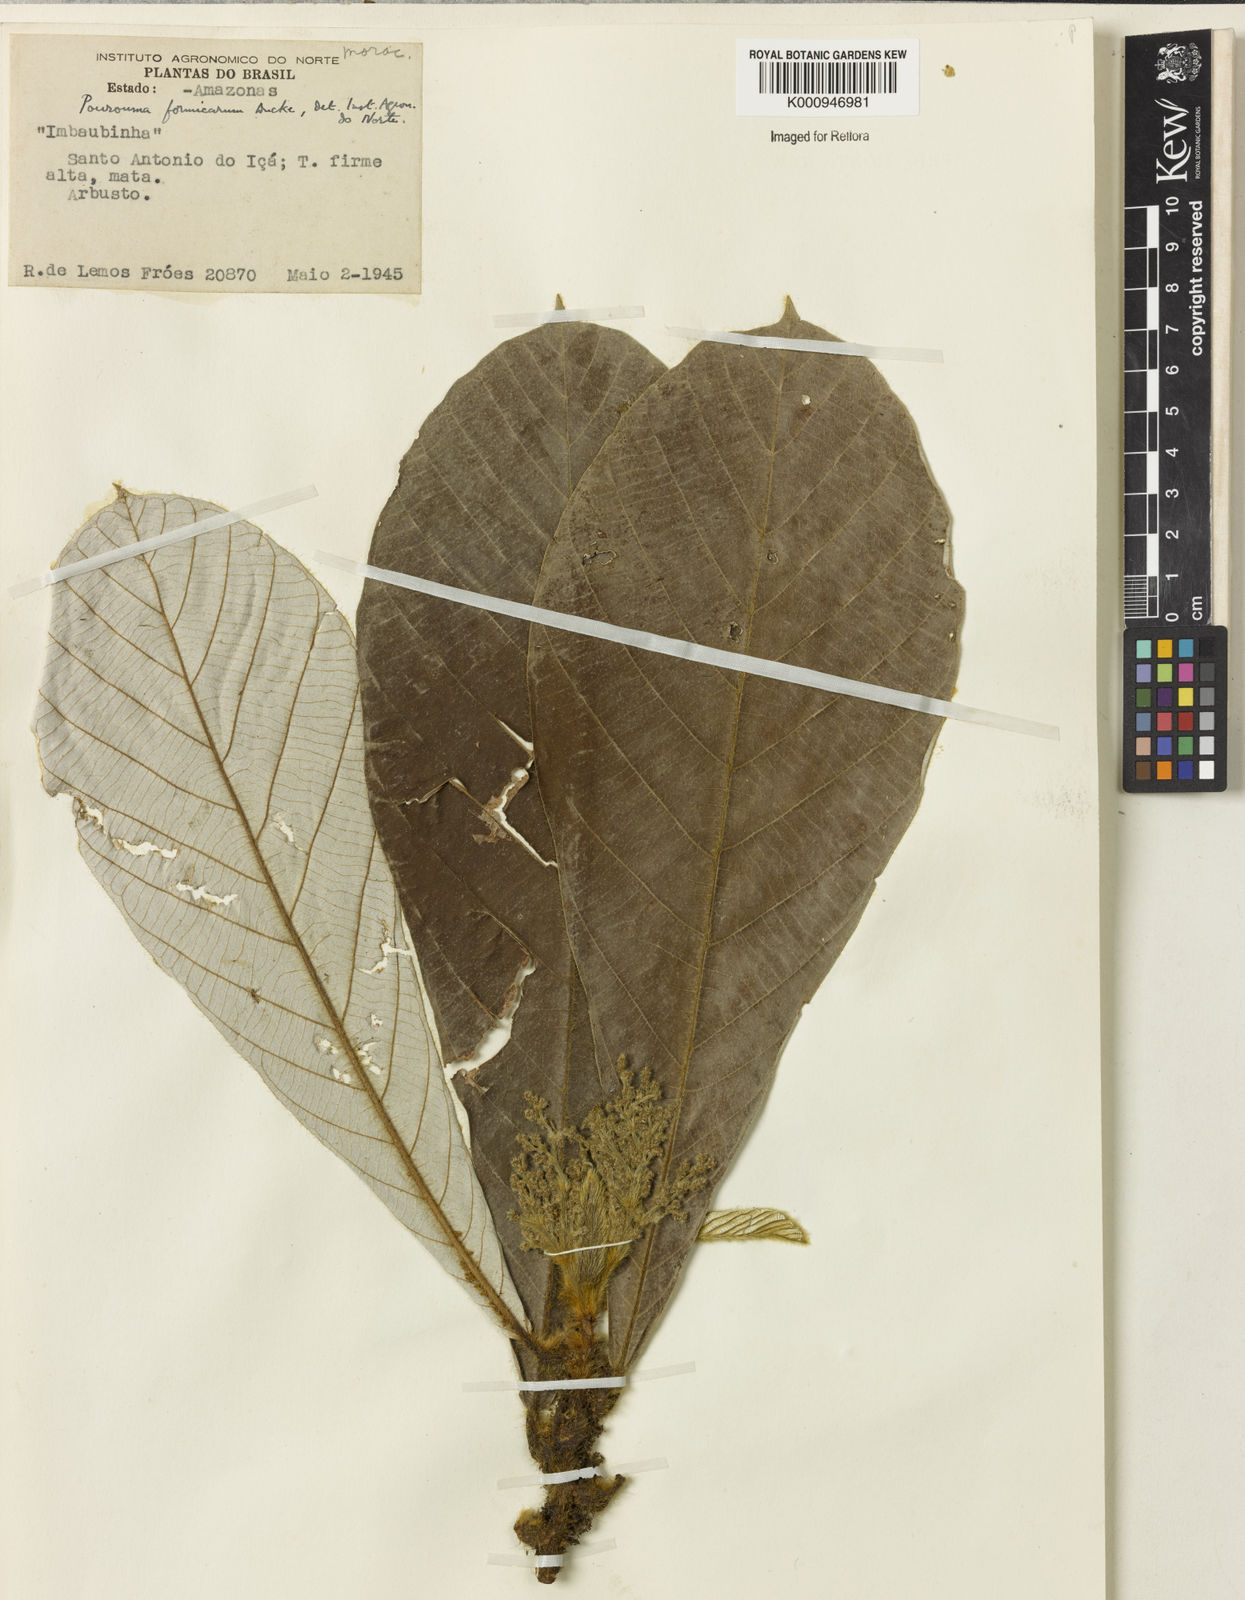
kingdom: Plantae
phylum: Tracheophyta
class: Magnoliopsida
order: Rosales
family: Urticaceae
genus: Pourouma
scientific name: Pourouma formicarum
